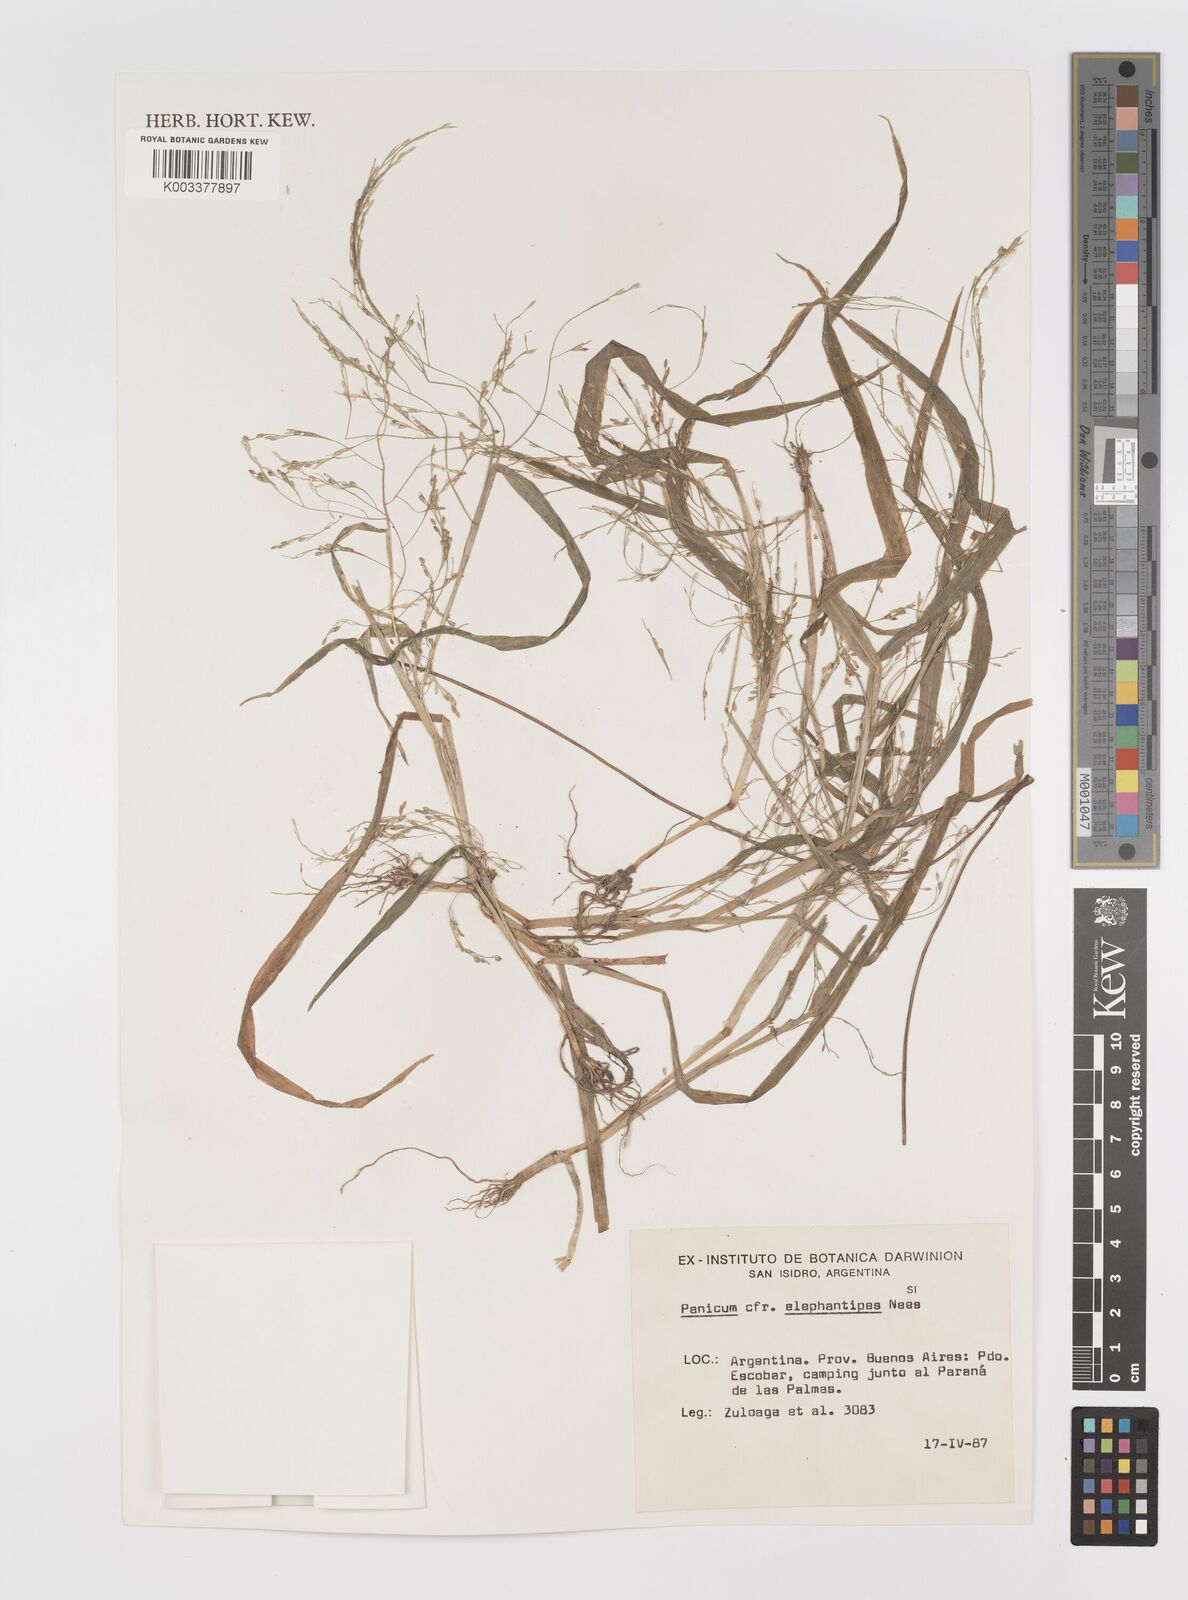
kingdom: Plantae
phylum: Tracheophyta
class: Liliopsida
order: Poales
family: Poaceae
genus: Panicum
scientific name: Panicum
